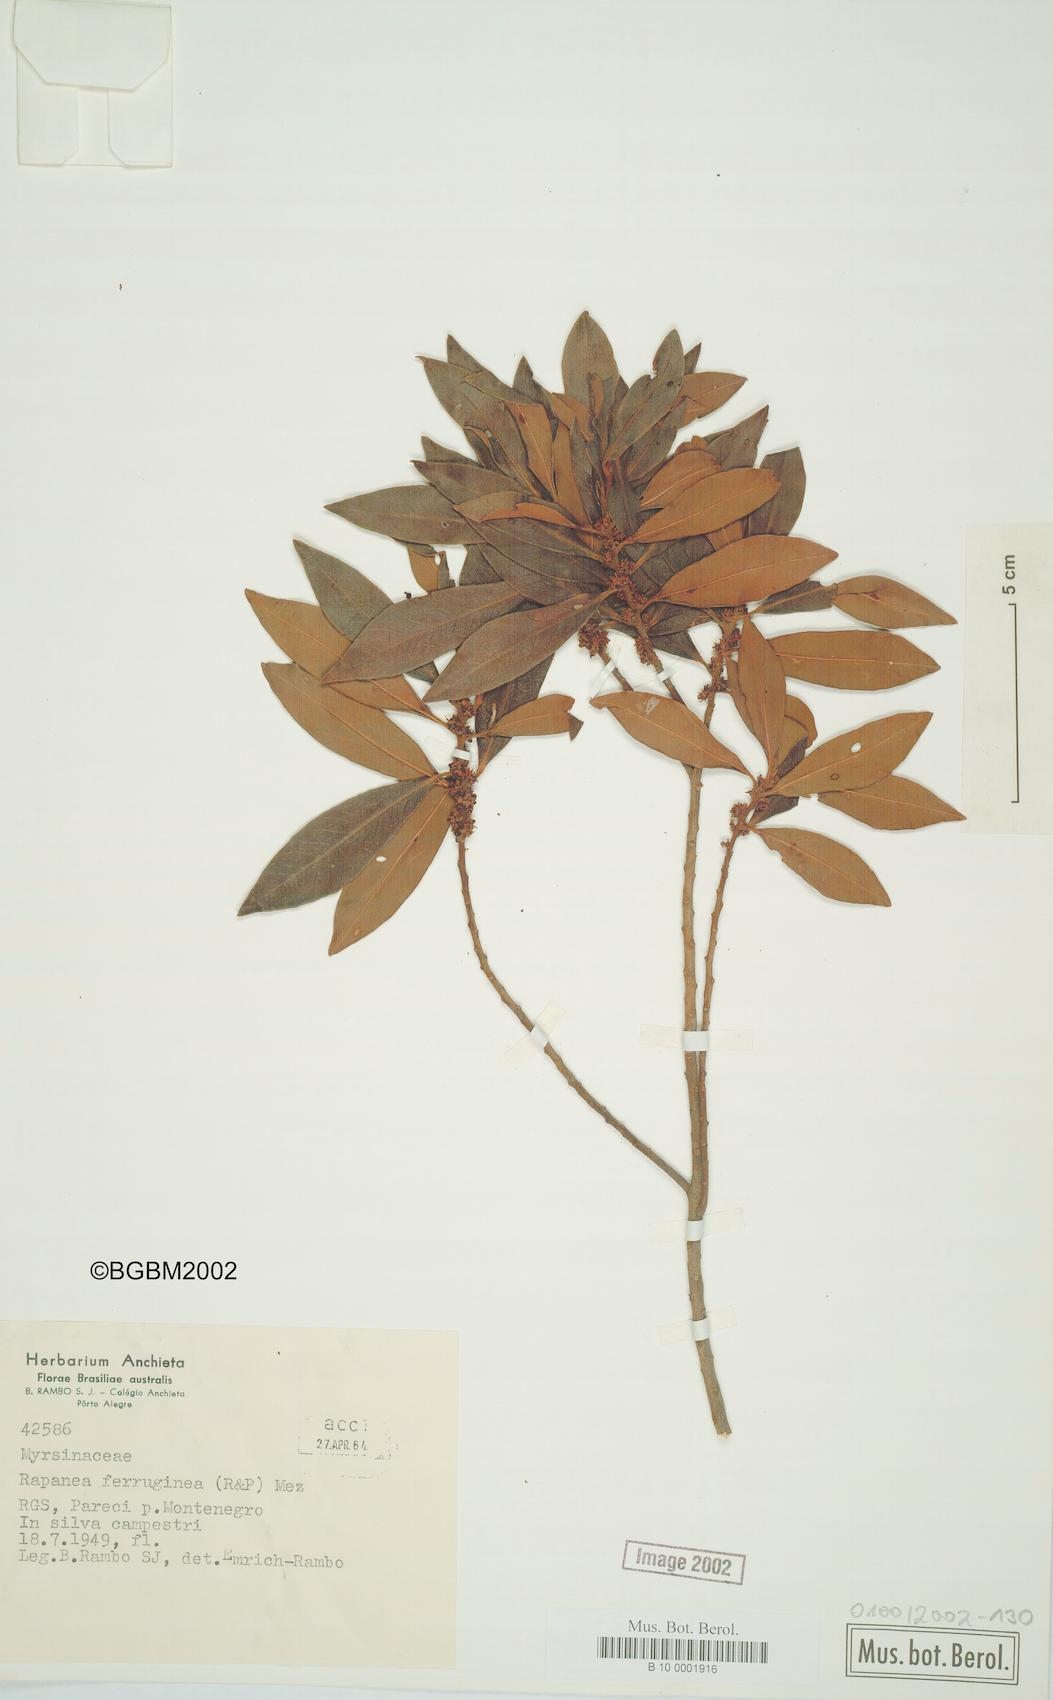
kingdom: Plantae
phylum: Tracheophyta
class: Magnoliopsida
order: Ericales
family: Primulaceae
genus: Myrsine
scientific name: Myrsine coriacea
